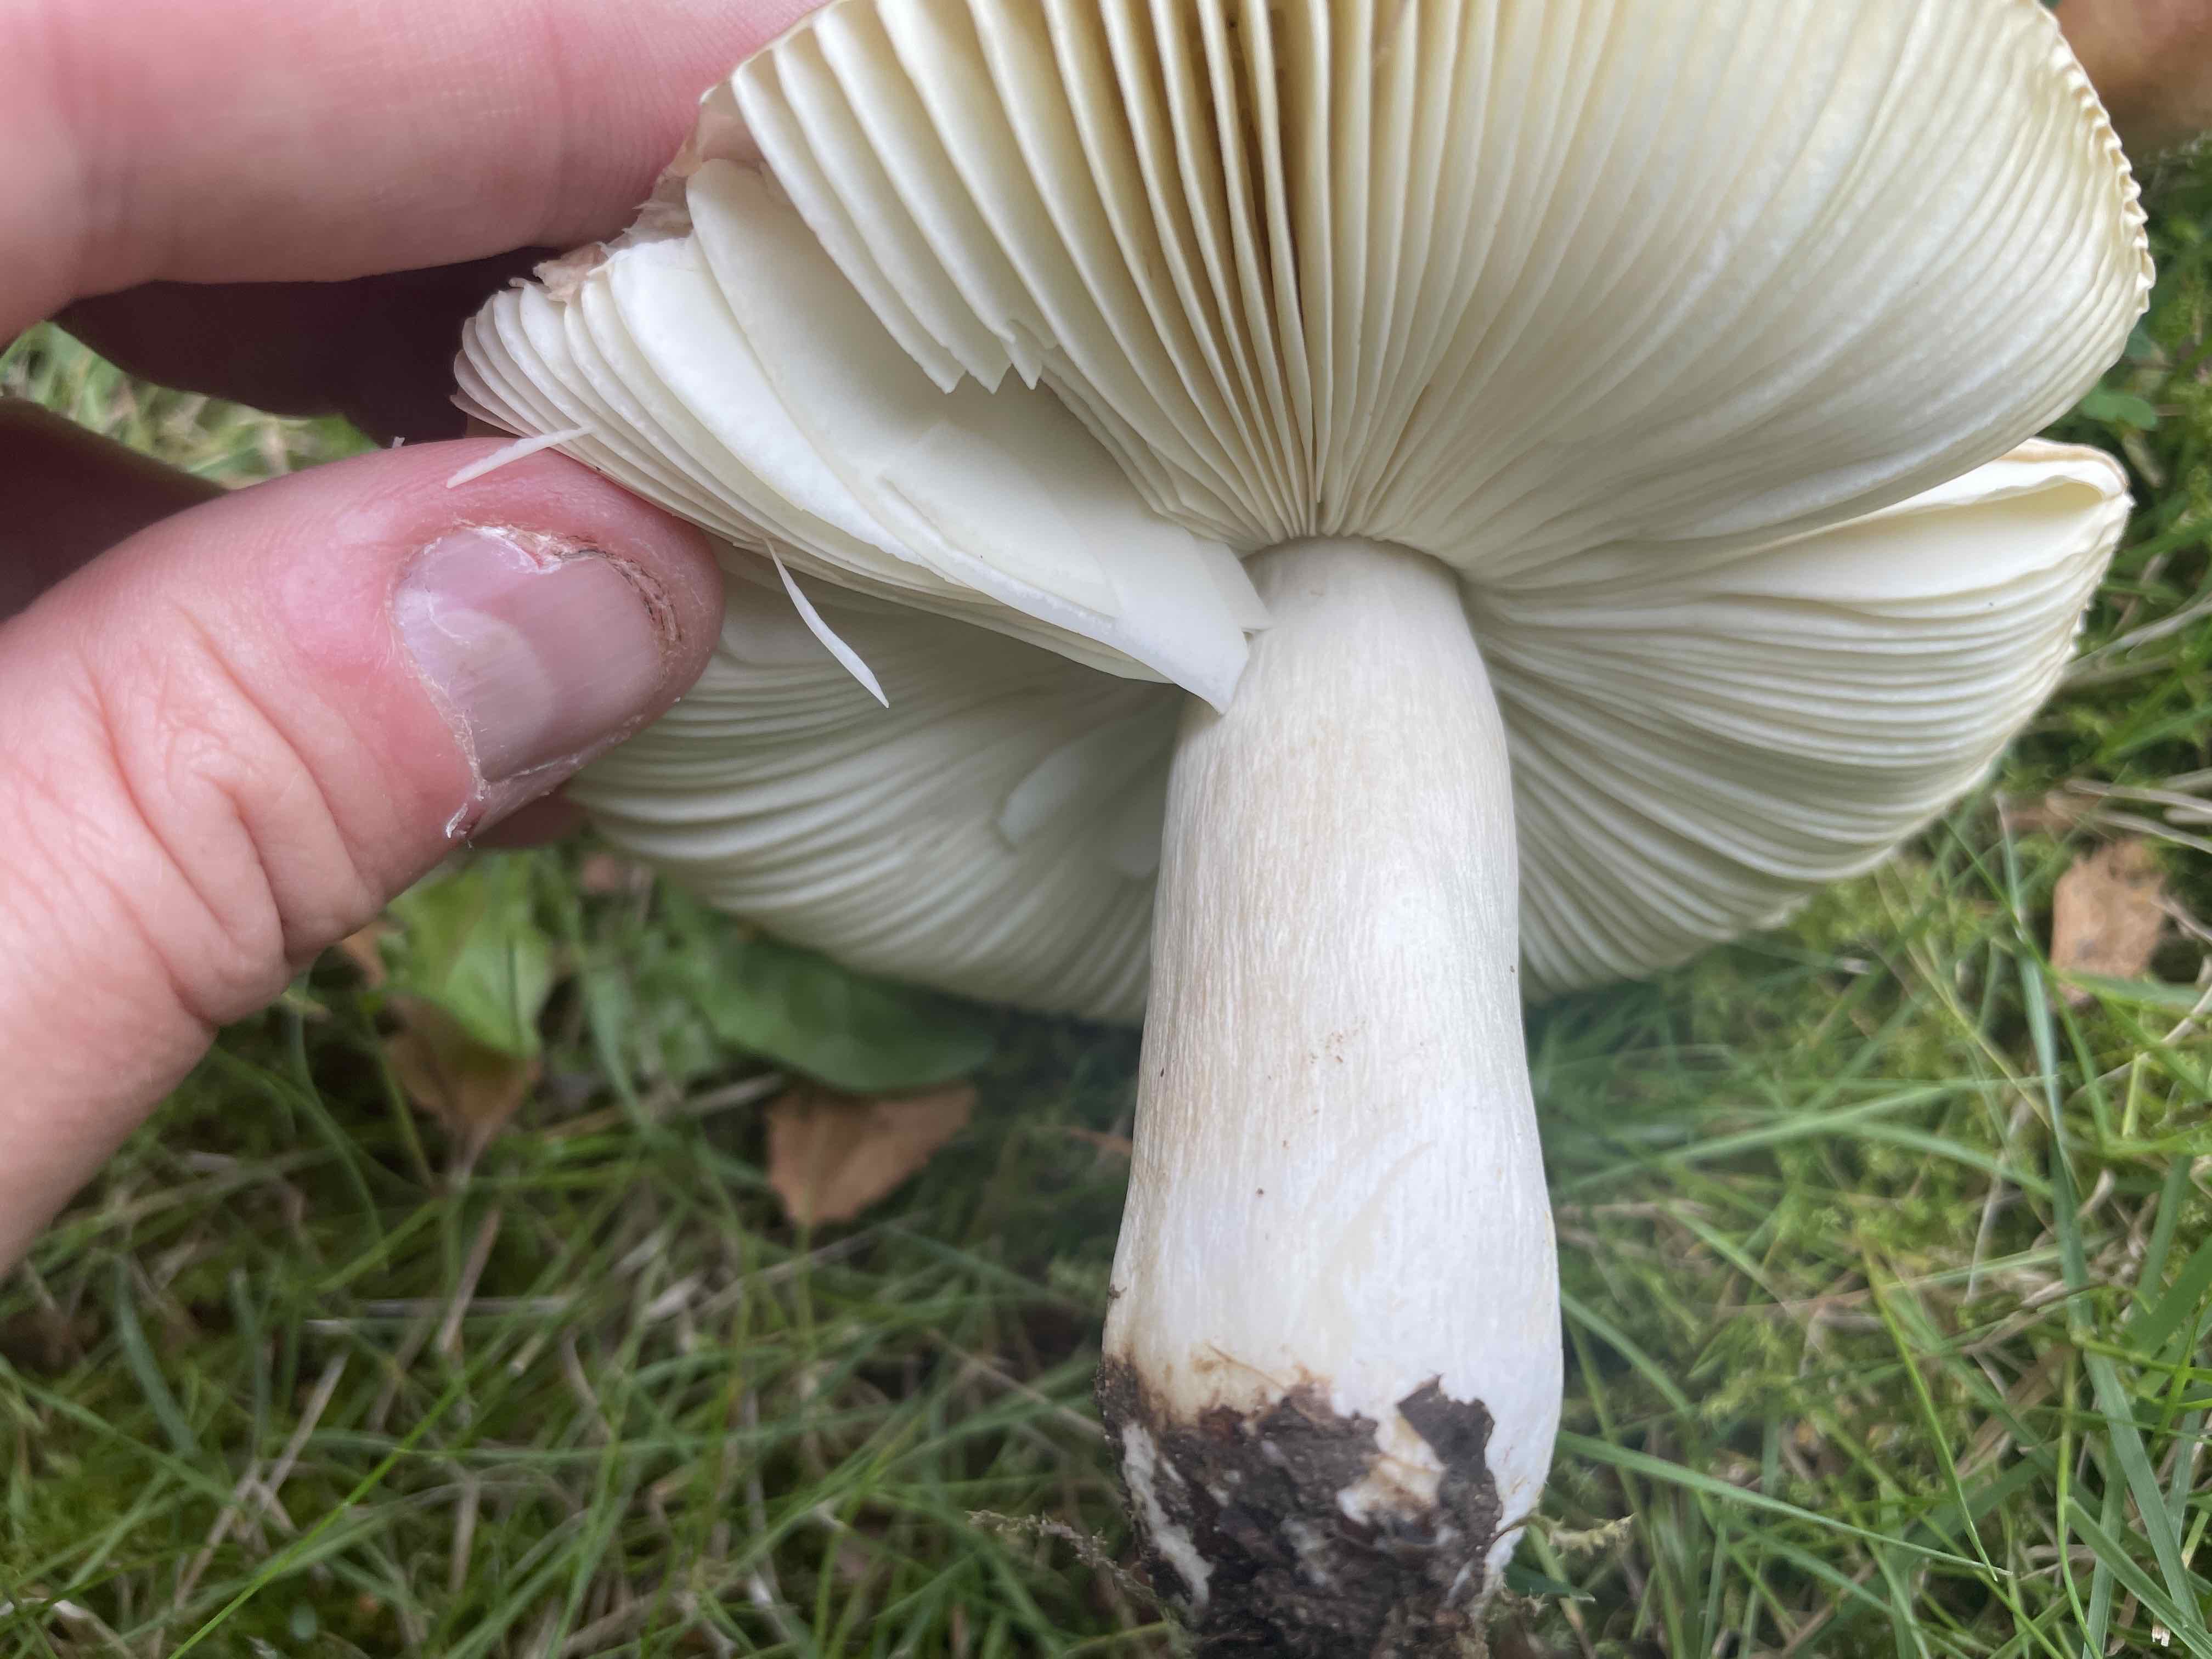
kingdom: Fungi
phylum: Basidiomycota
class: Agaricomycetes
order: Russulales
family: Russulaceae
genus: Russula
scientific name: Russula
